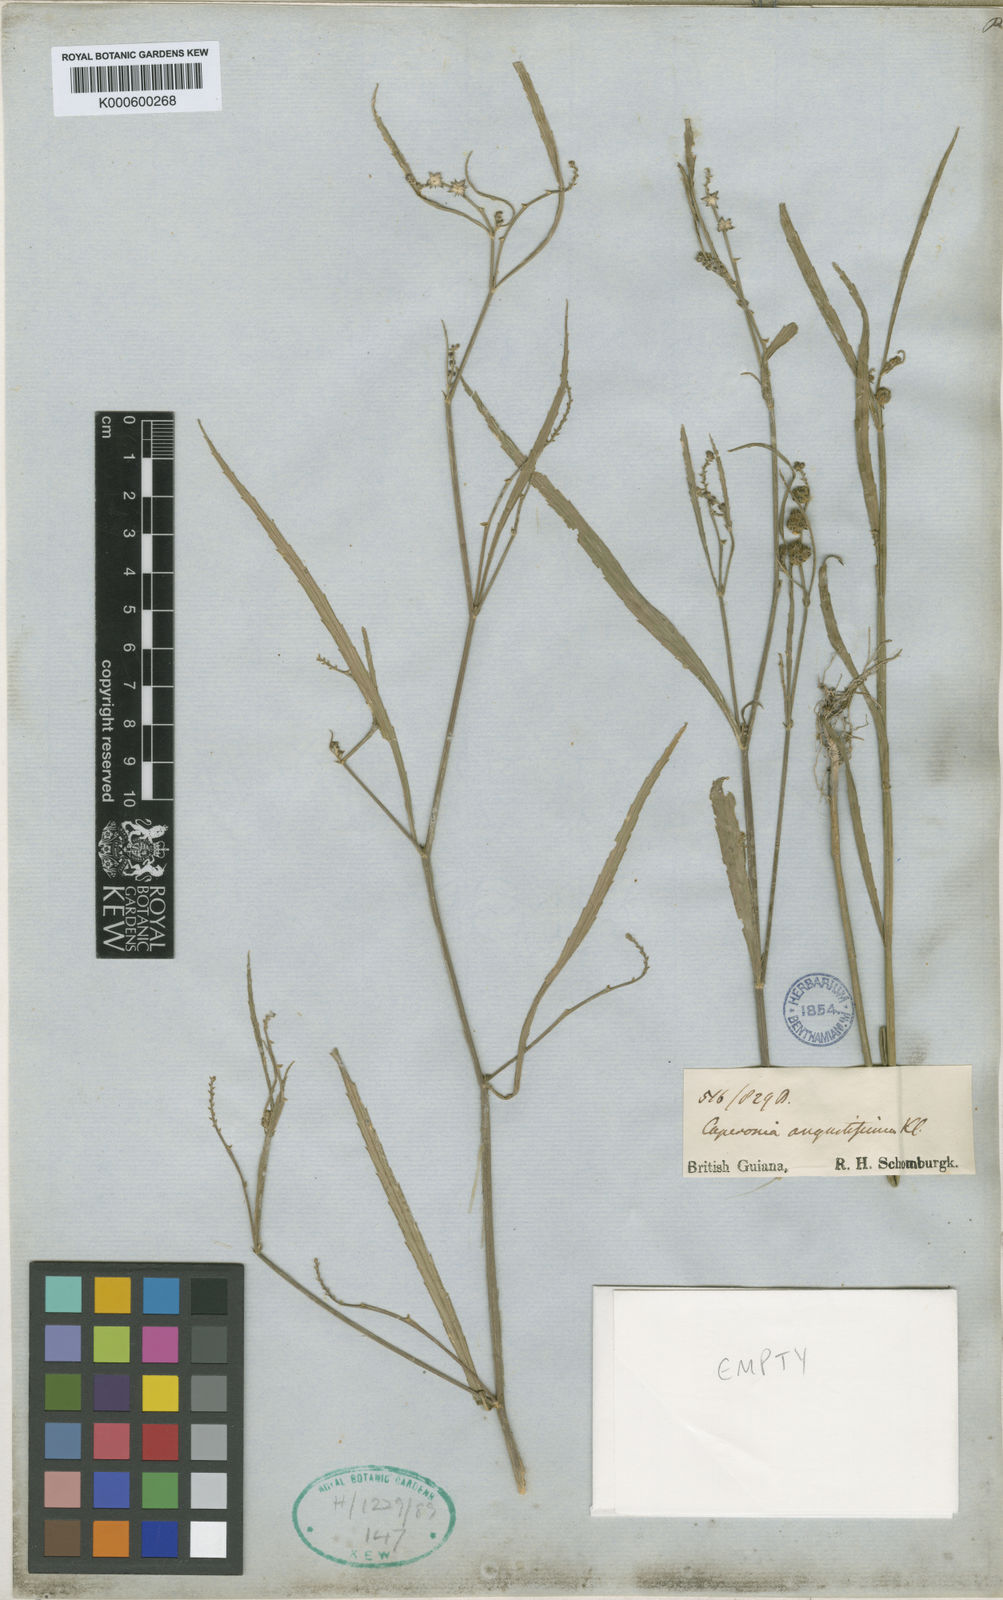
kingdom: Plantae
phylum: Tracheophyta
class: Magnoliopsida
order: Malpighiales
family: Euphorbiaceae
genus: Caperonia
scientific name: Caperonia angustissima
